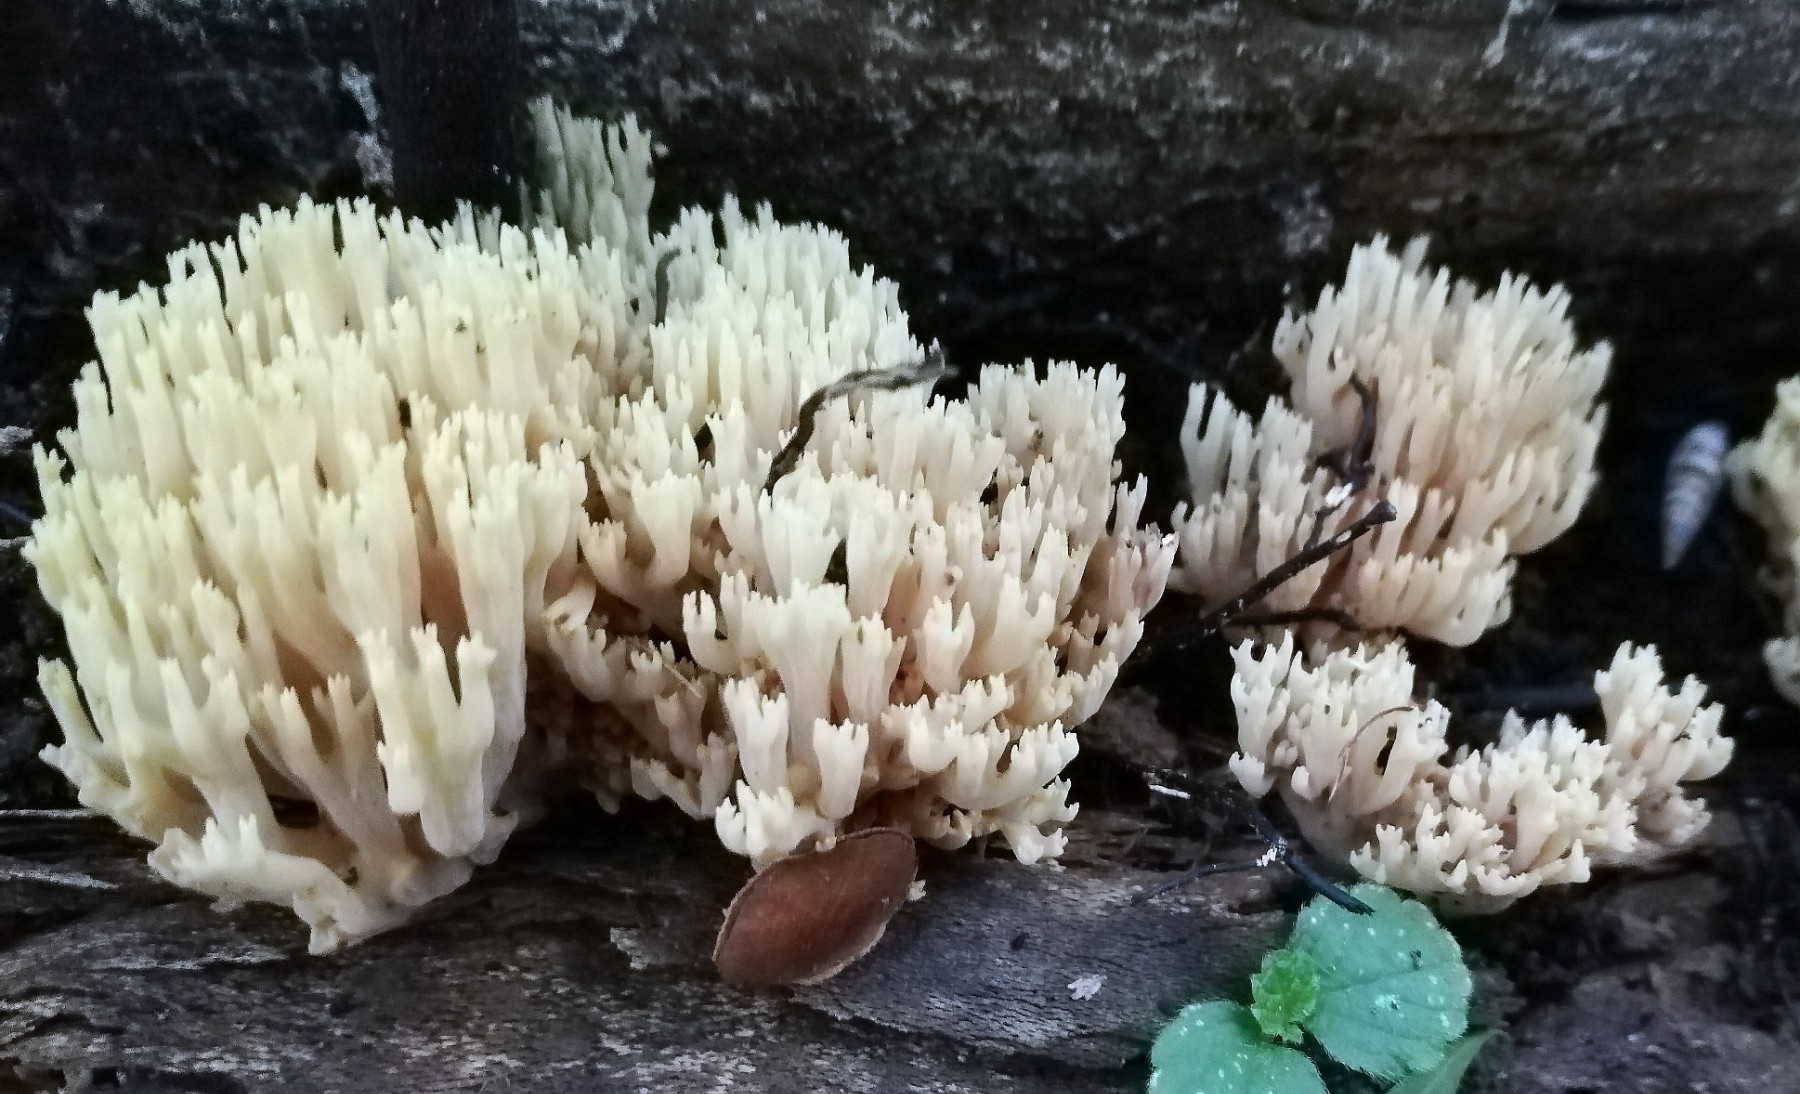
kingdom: Fungi
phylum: Basidiomycota
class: Agaricomycetes
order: Gomphales
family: Gomphaceae
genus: Ramaria
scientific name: Ramaria stricta
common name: rank koralsvamp
